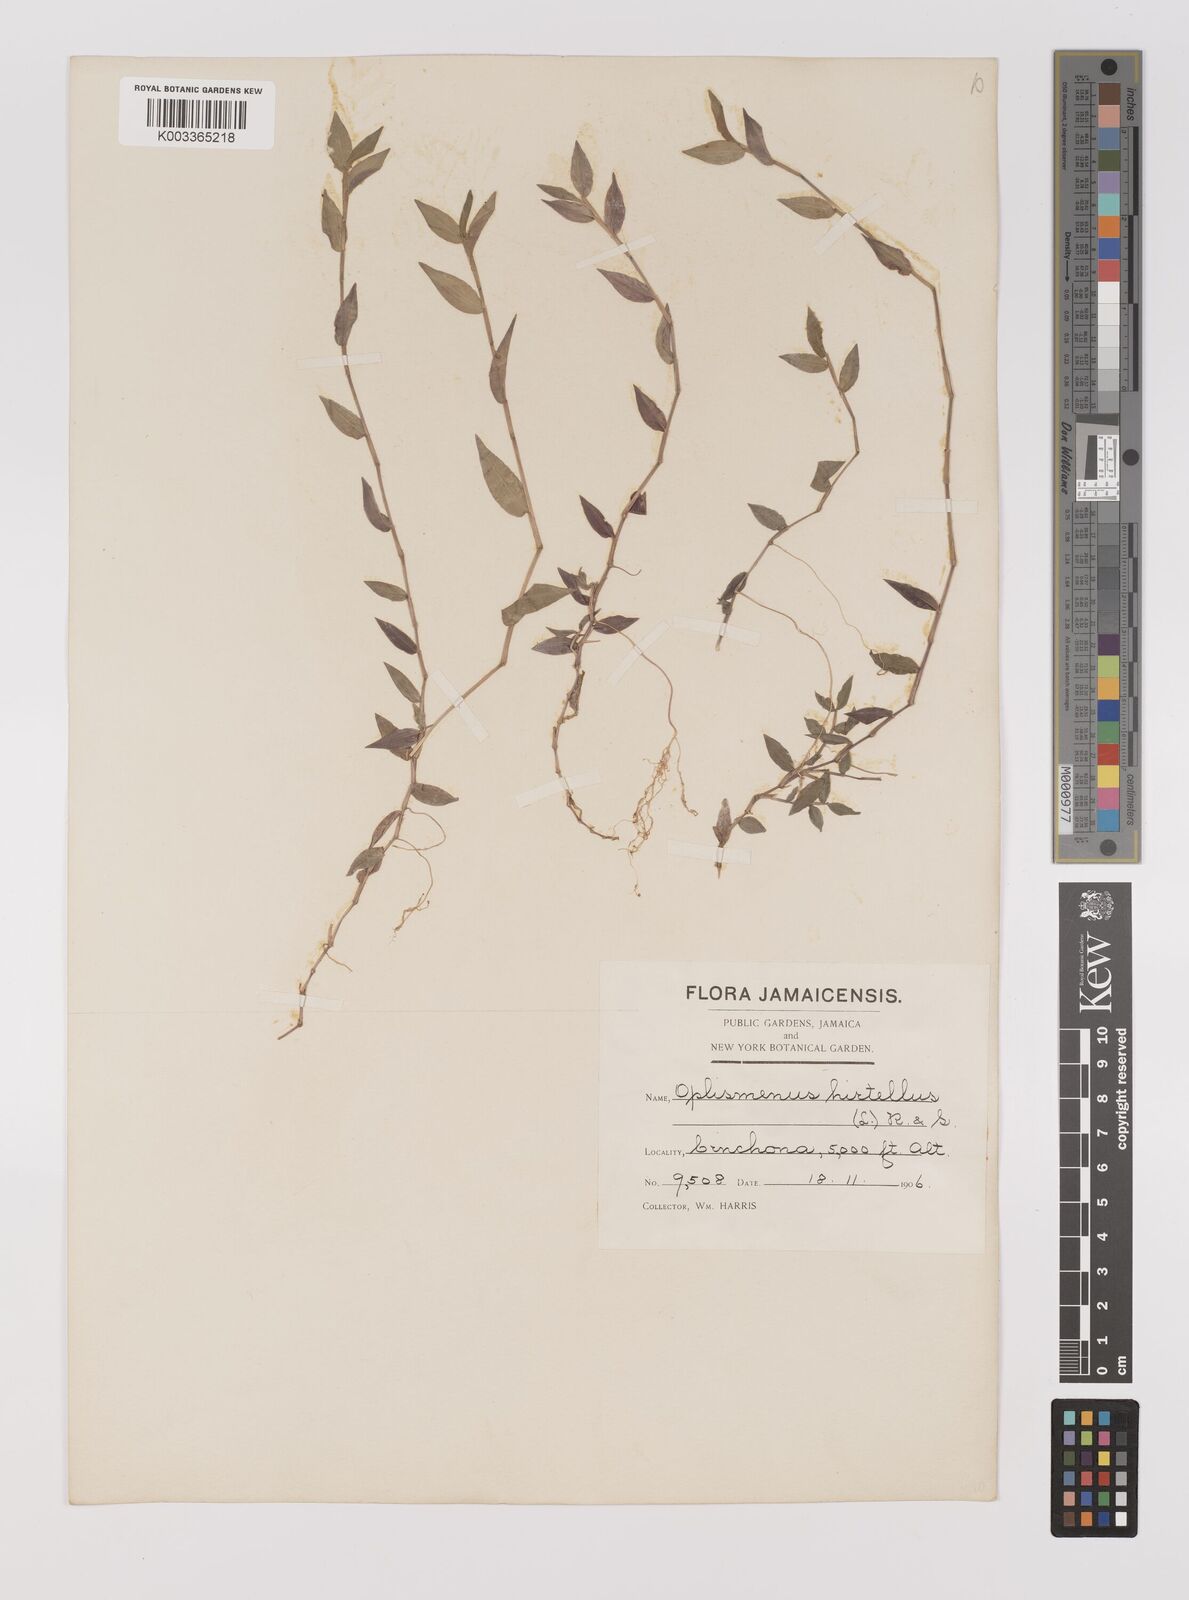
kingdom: Plantae
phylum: Tracheophyta
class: Liliopsida
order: Poales
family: Poaceae
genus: Oplismenus
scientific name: Oplismenus hirtellus
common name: Basketgrass
